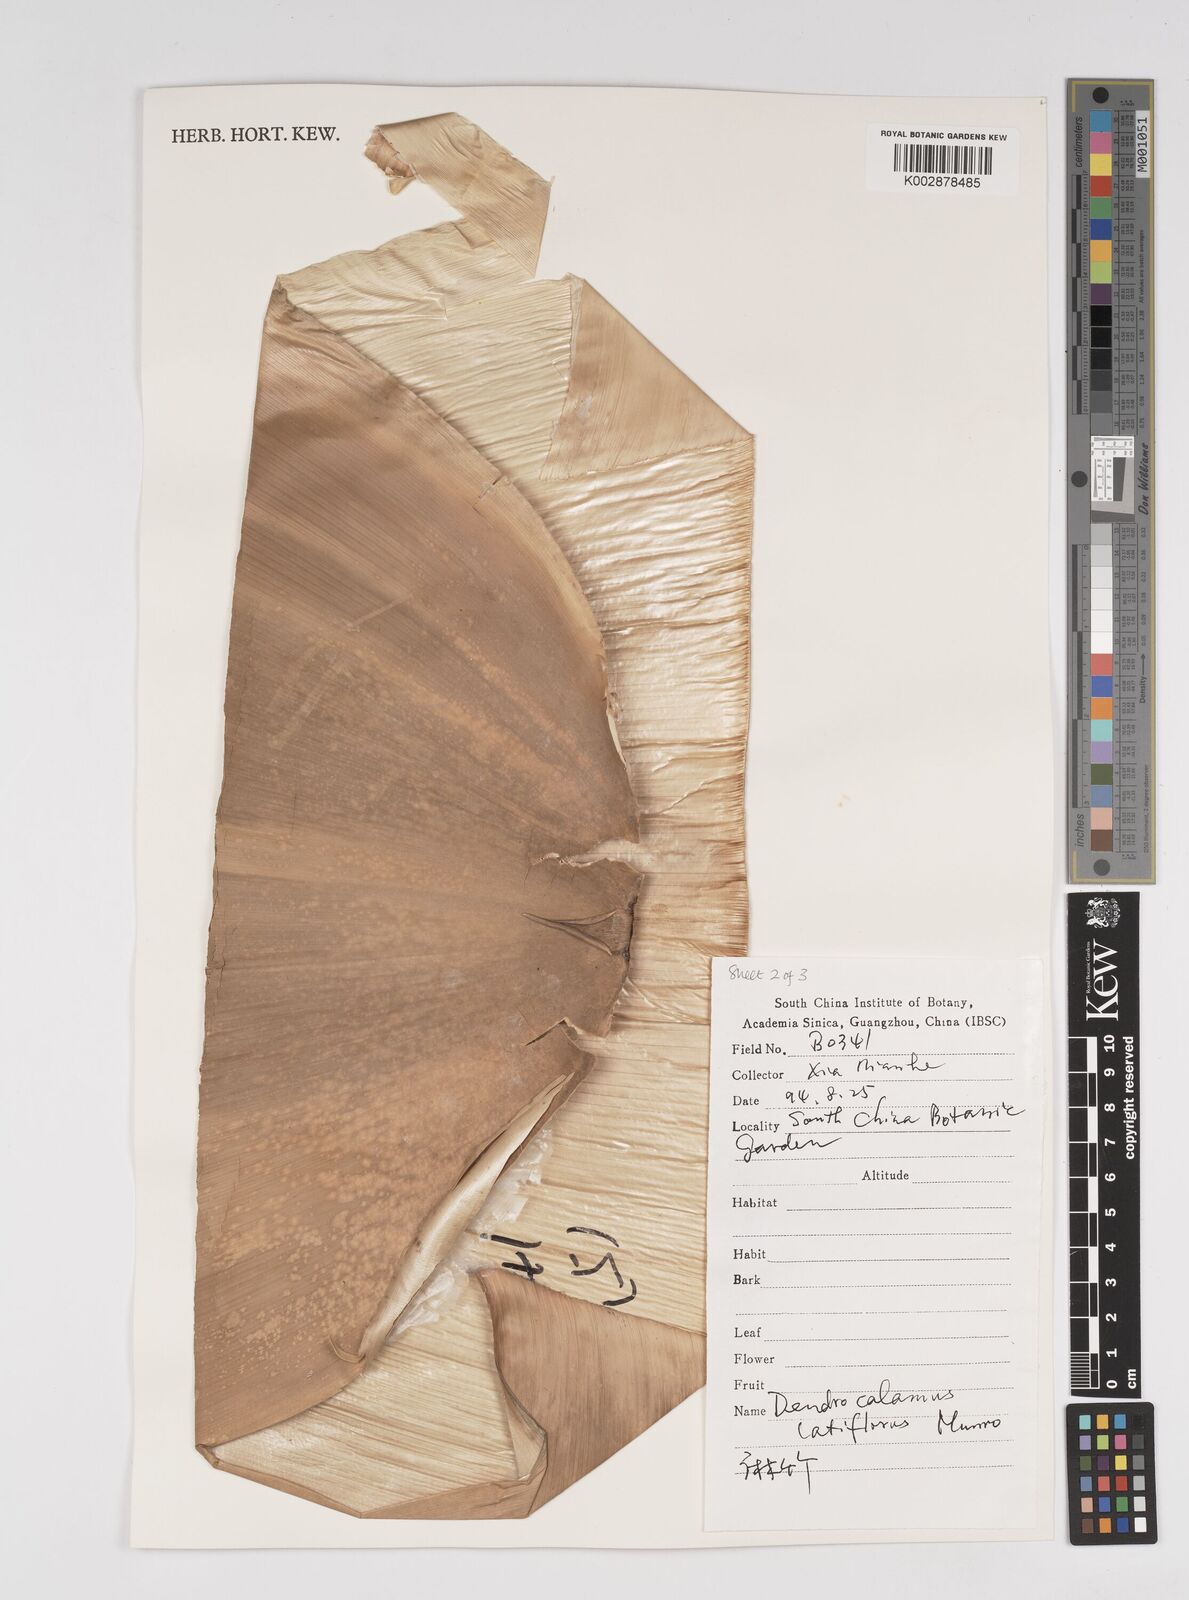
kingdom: Plantae
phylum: Tracheophyta
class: Liliopsida
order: Poales
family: Poaceae
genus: Dendrocalamus
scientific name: Dendrocalamus latiflorus
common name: Giant bamboo
